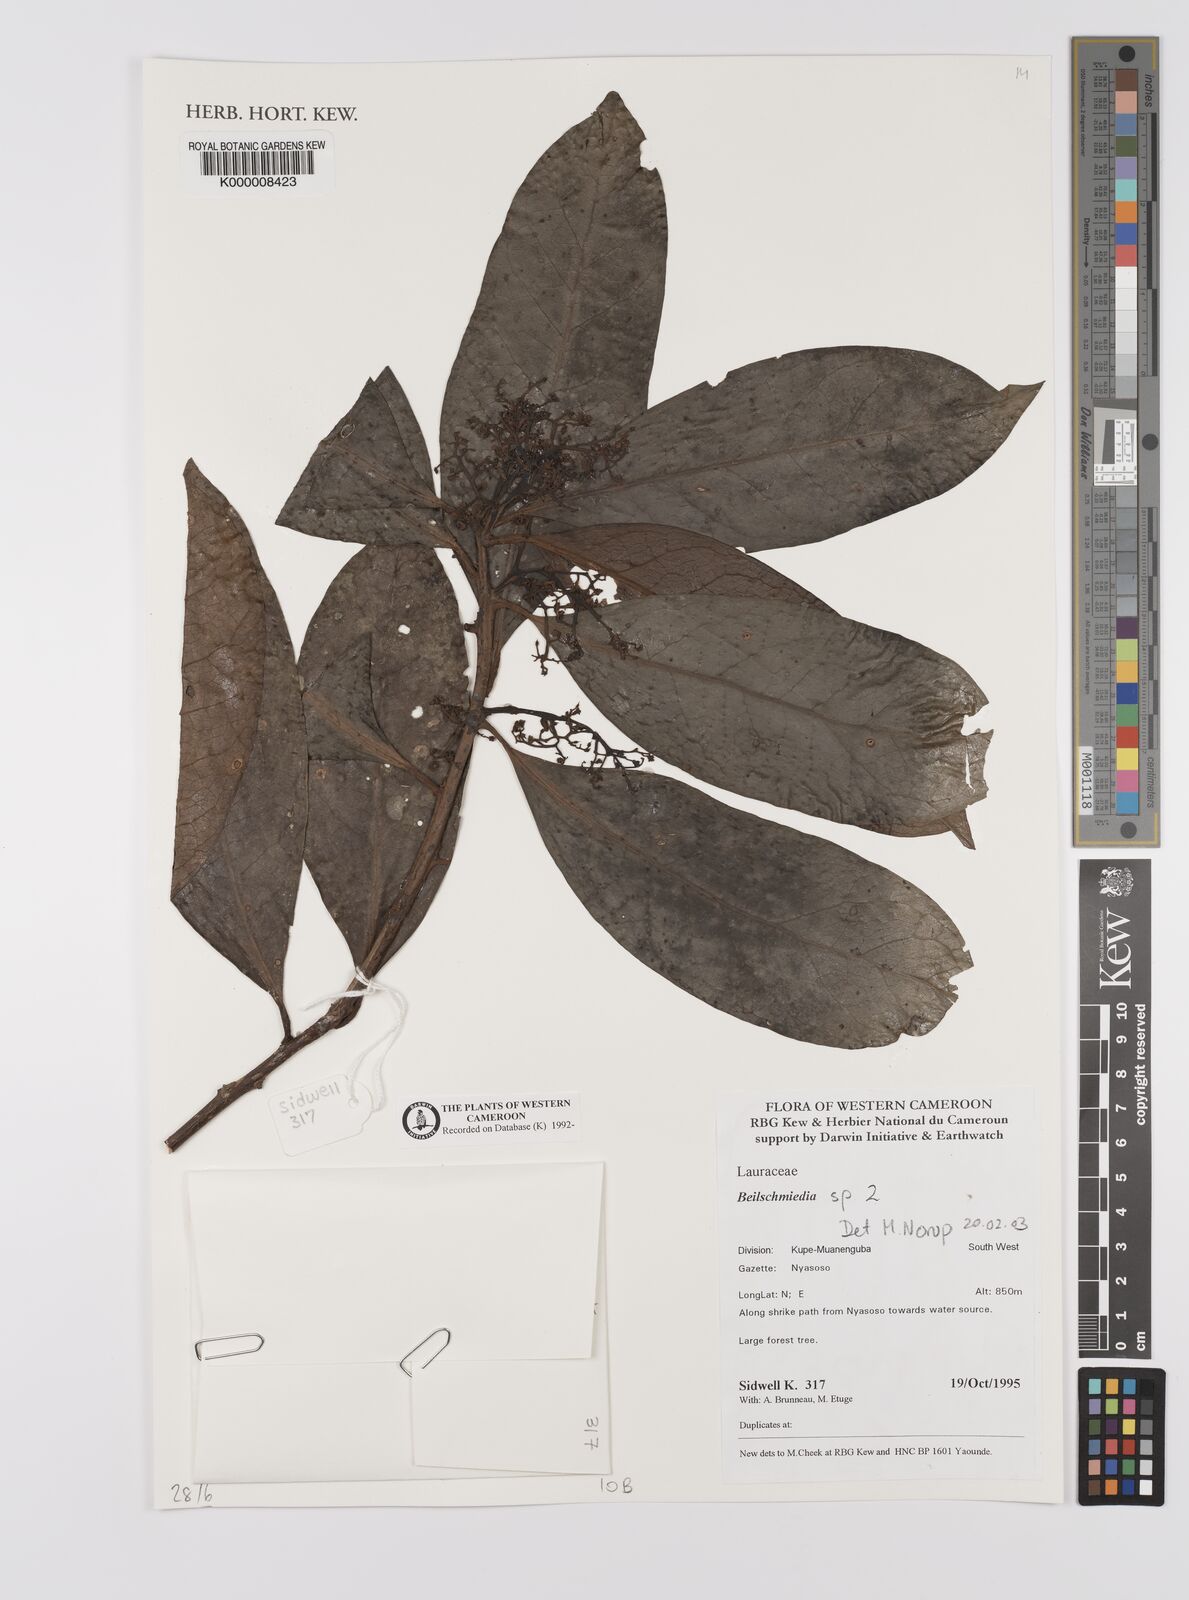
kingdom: Plantae
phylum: Tracheophyta
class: Magnoliopsida
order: Laurales
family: Lauraceae
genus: Beilschmiedia
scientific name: Beilschmiedia
